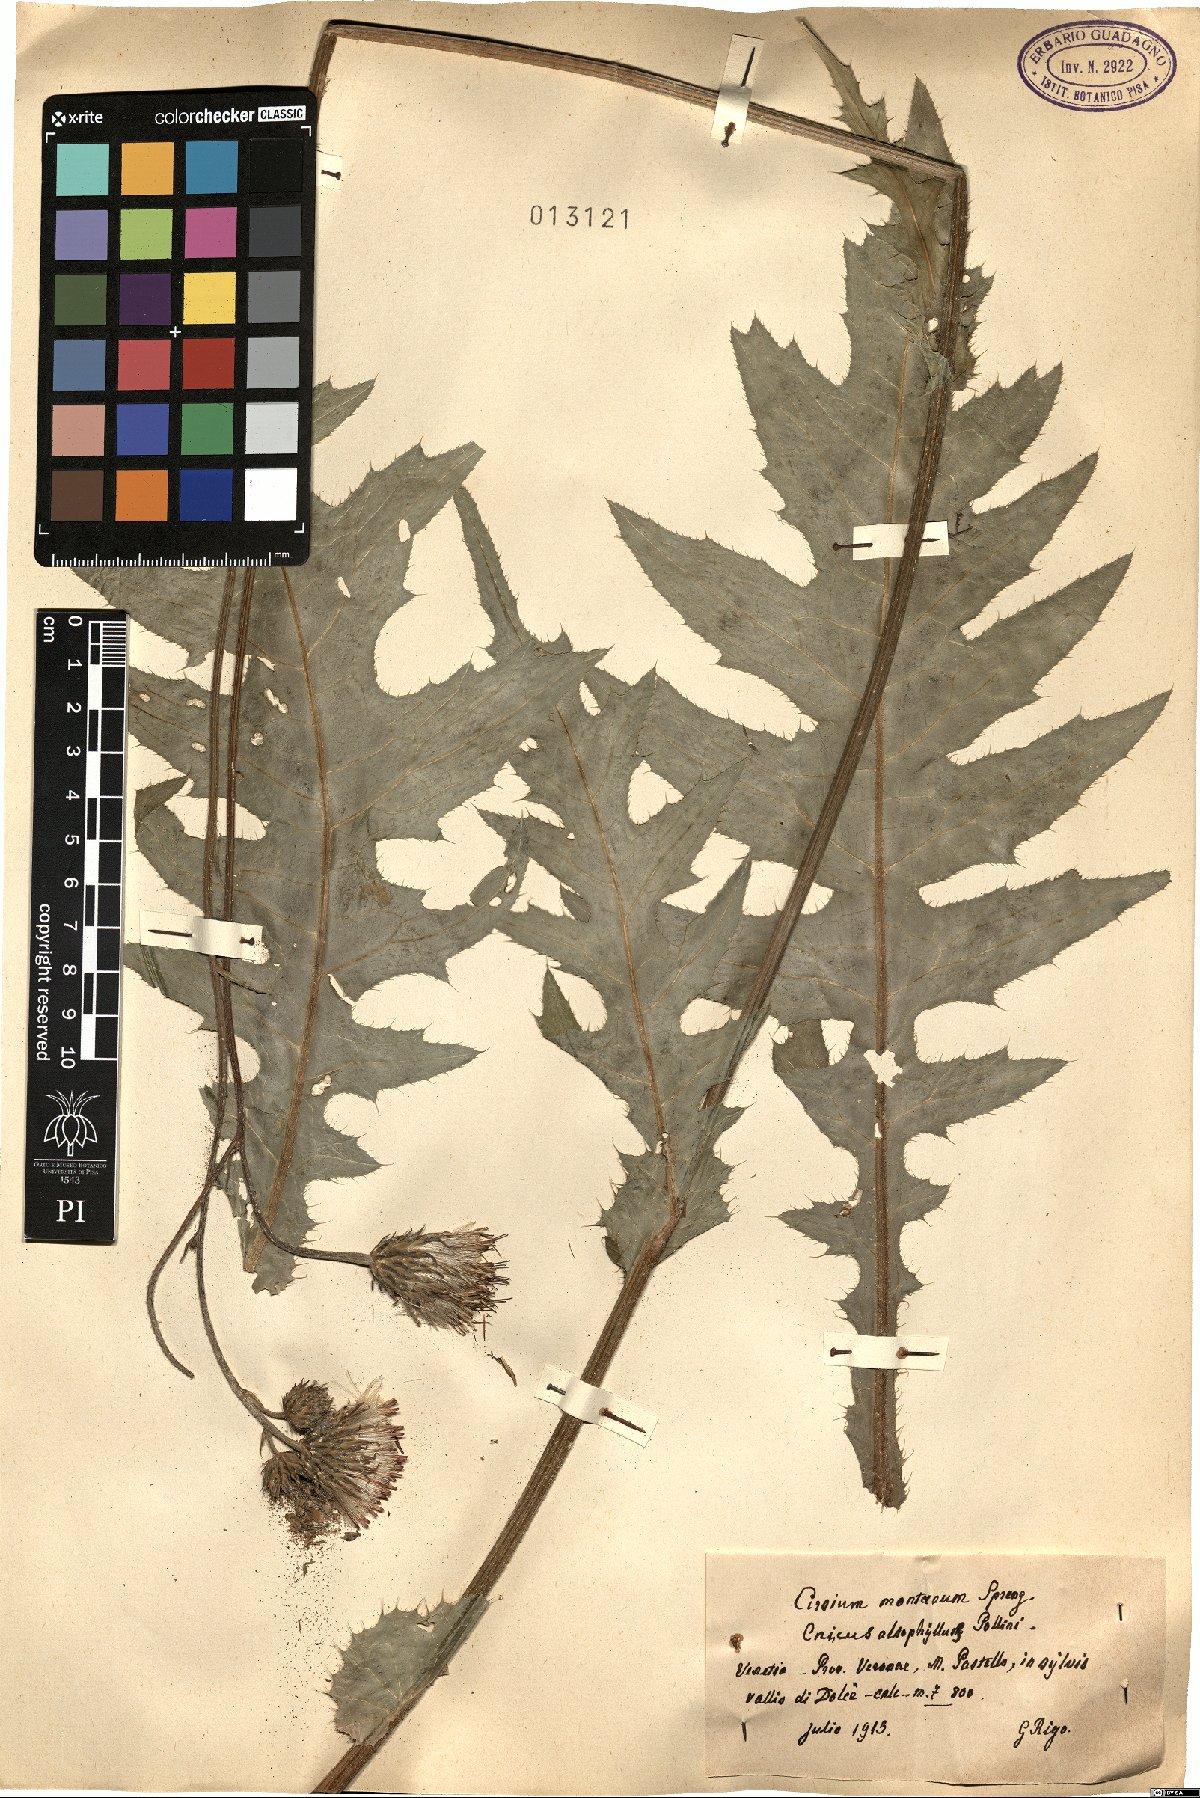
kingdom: Plantae
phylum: Tracheophyta
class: Magnoliopsida
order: Asterales
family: Asteraceae
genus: Cirsium
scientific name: Cirsium alsophilum
